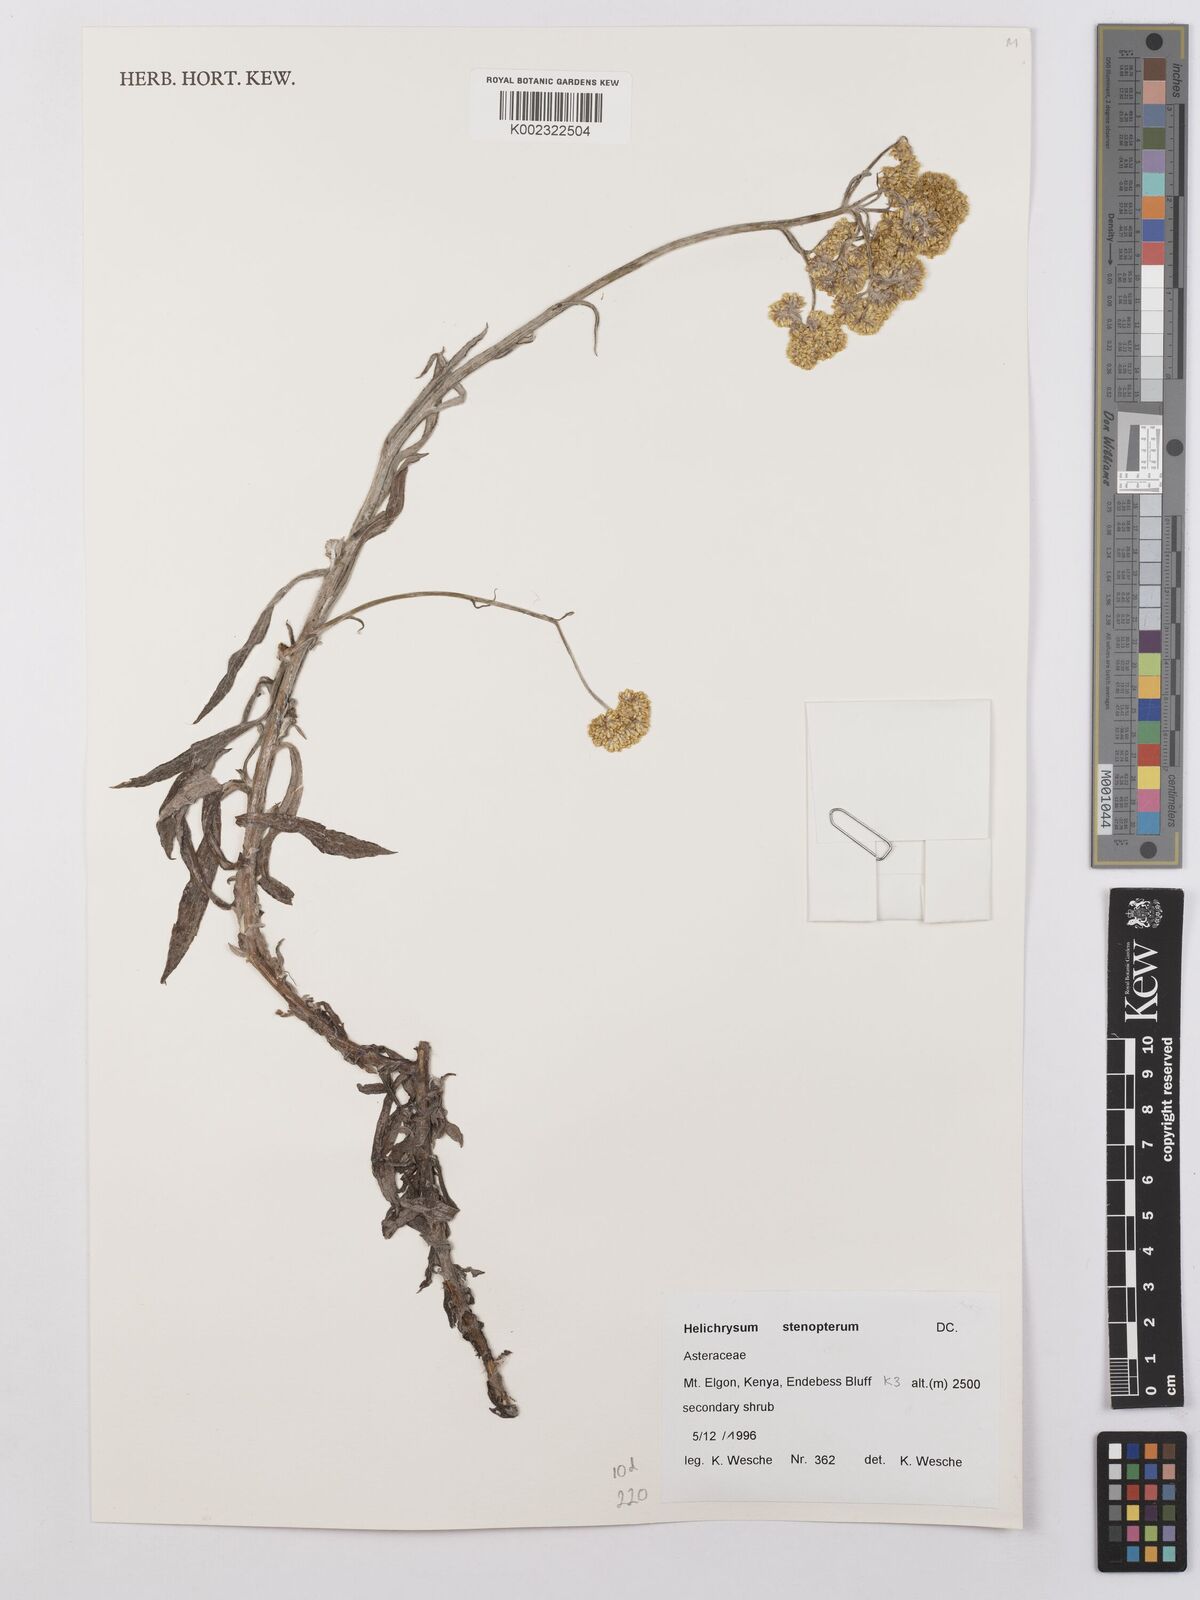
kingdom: Plantae
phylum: Tracheophyta
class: Magnoliopsida
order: Asterales
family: Asteraceae
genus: Helichrysum
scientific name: Helichrysum stenopterum
